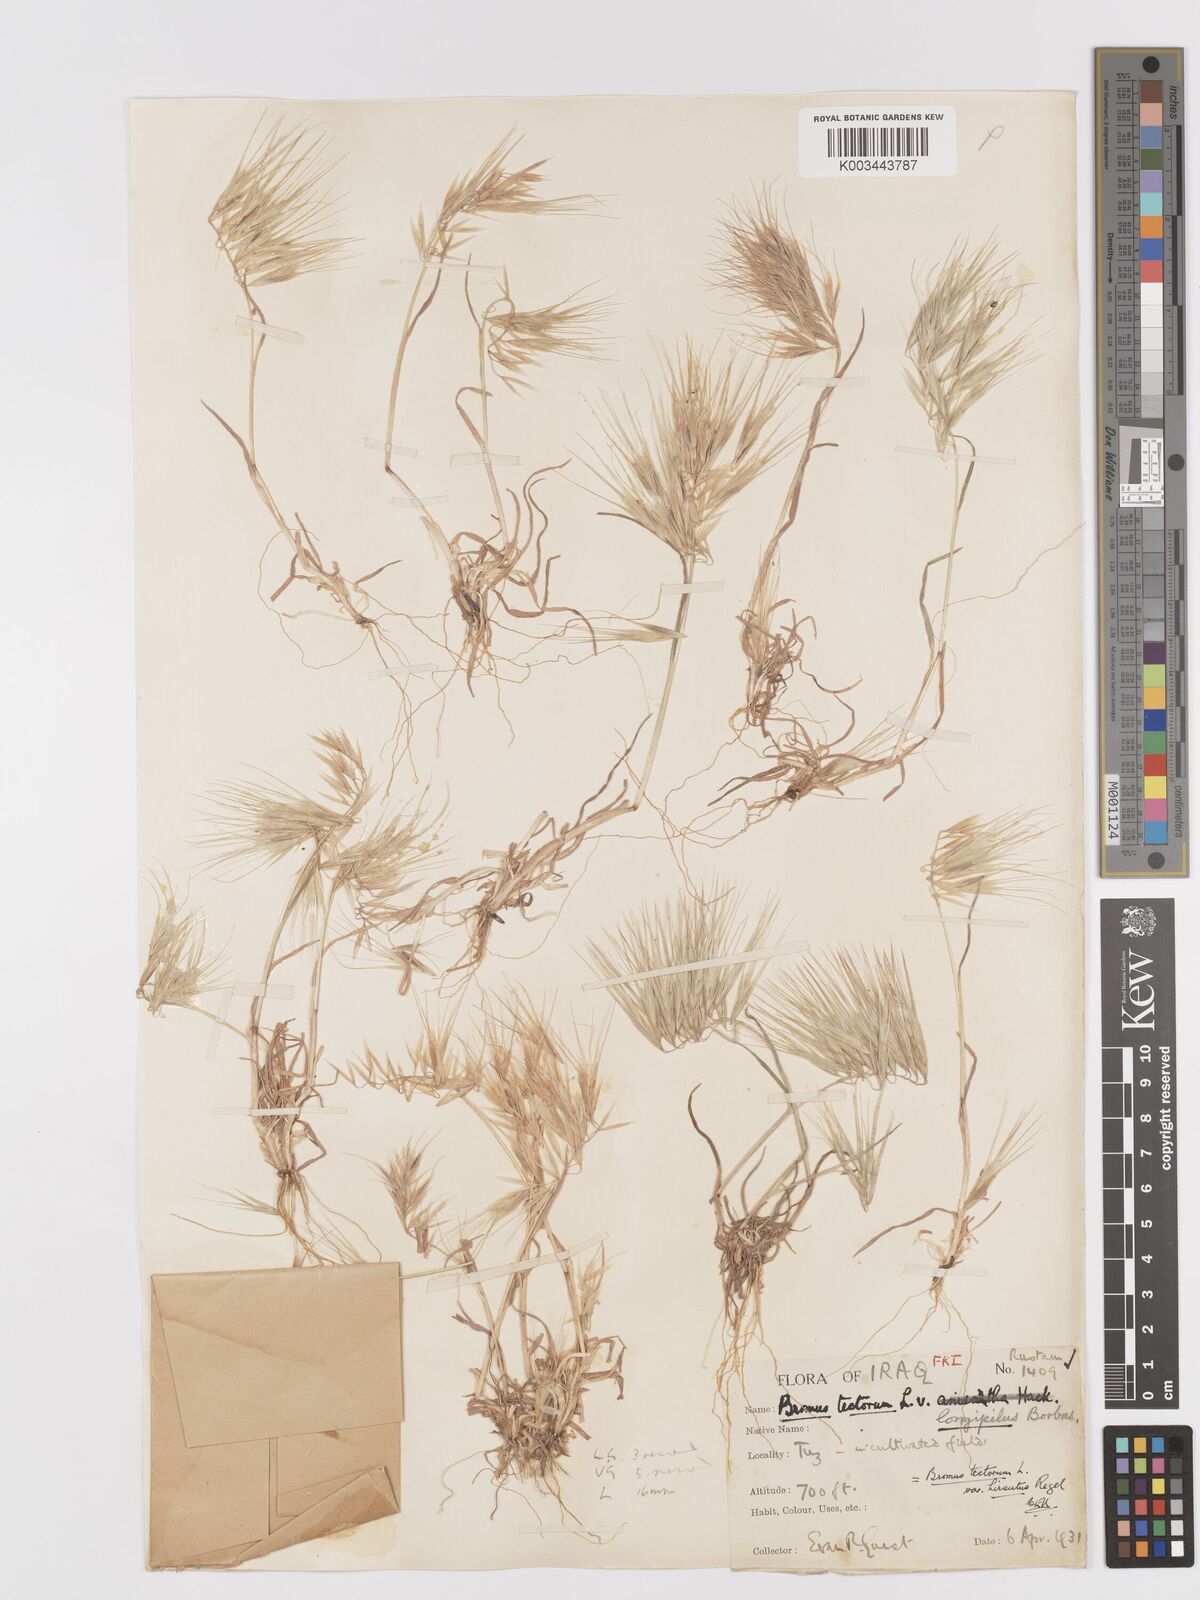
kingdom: Plantae
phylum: Tracheophyta
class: Liliopsida
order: Poales
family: Poaceae
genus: Bromus
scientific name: Bromus tectorum
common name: Cheatgrass
